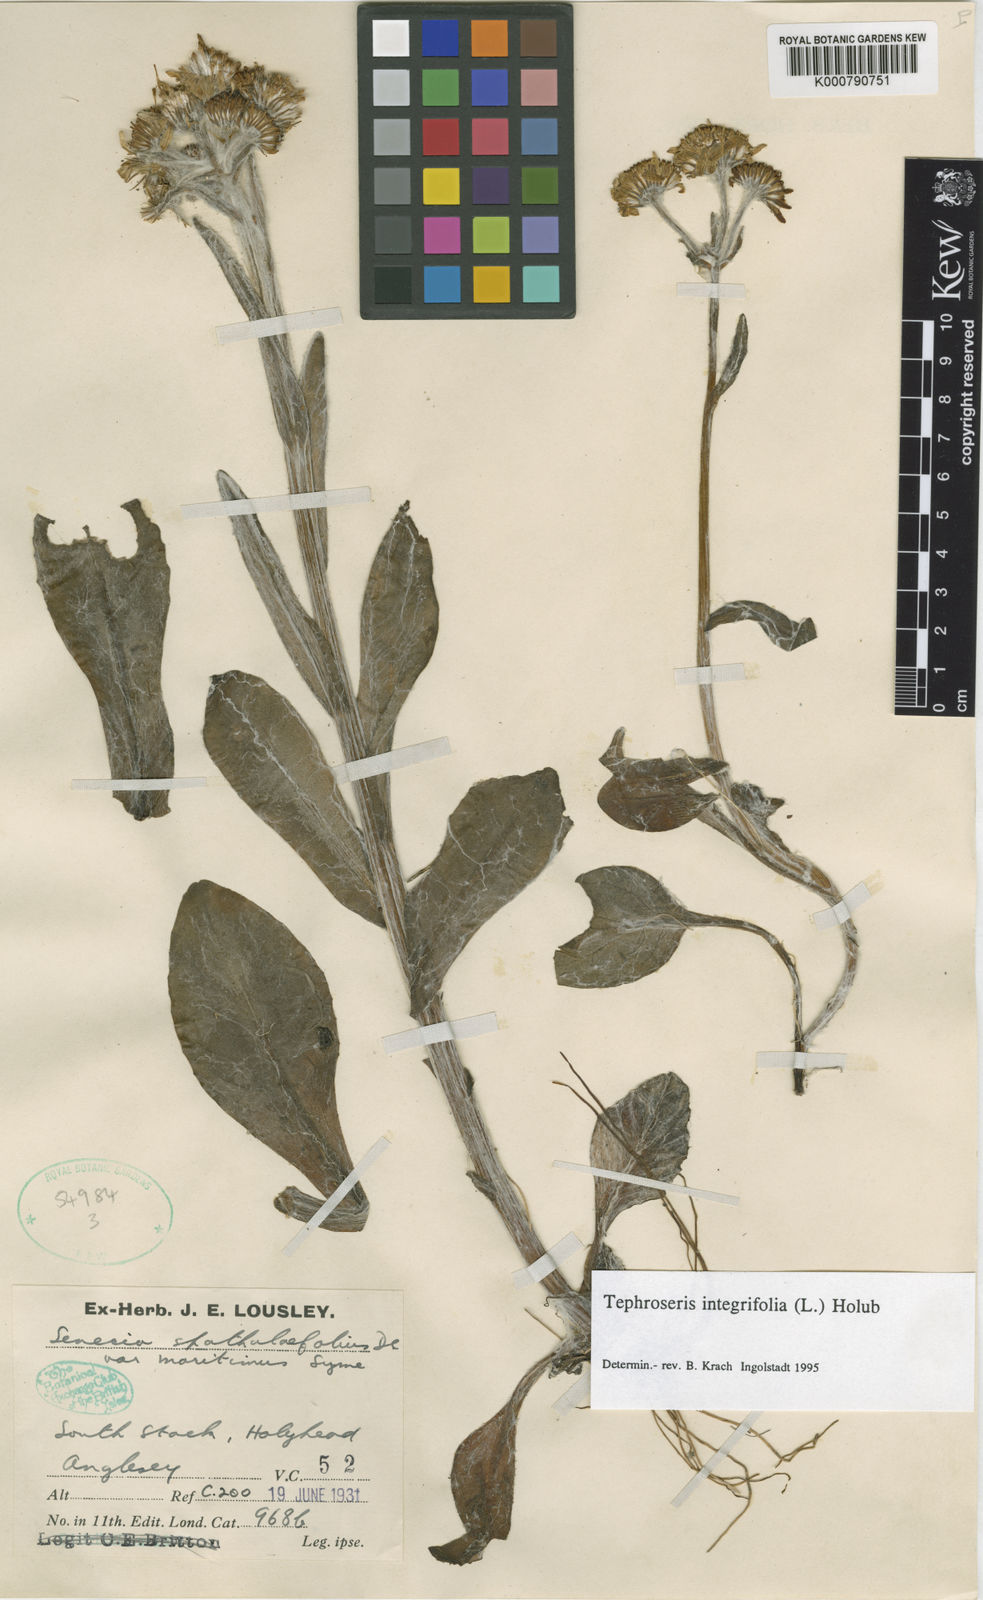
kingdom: Plantae
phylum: Tracheophyta
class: Magnoliopsida
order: Asterales
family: Asteraceae
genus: Tephroseris
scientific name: Tephroseris integrifolia
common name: Field fleawort
